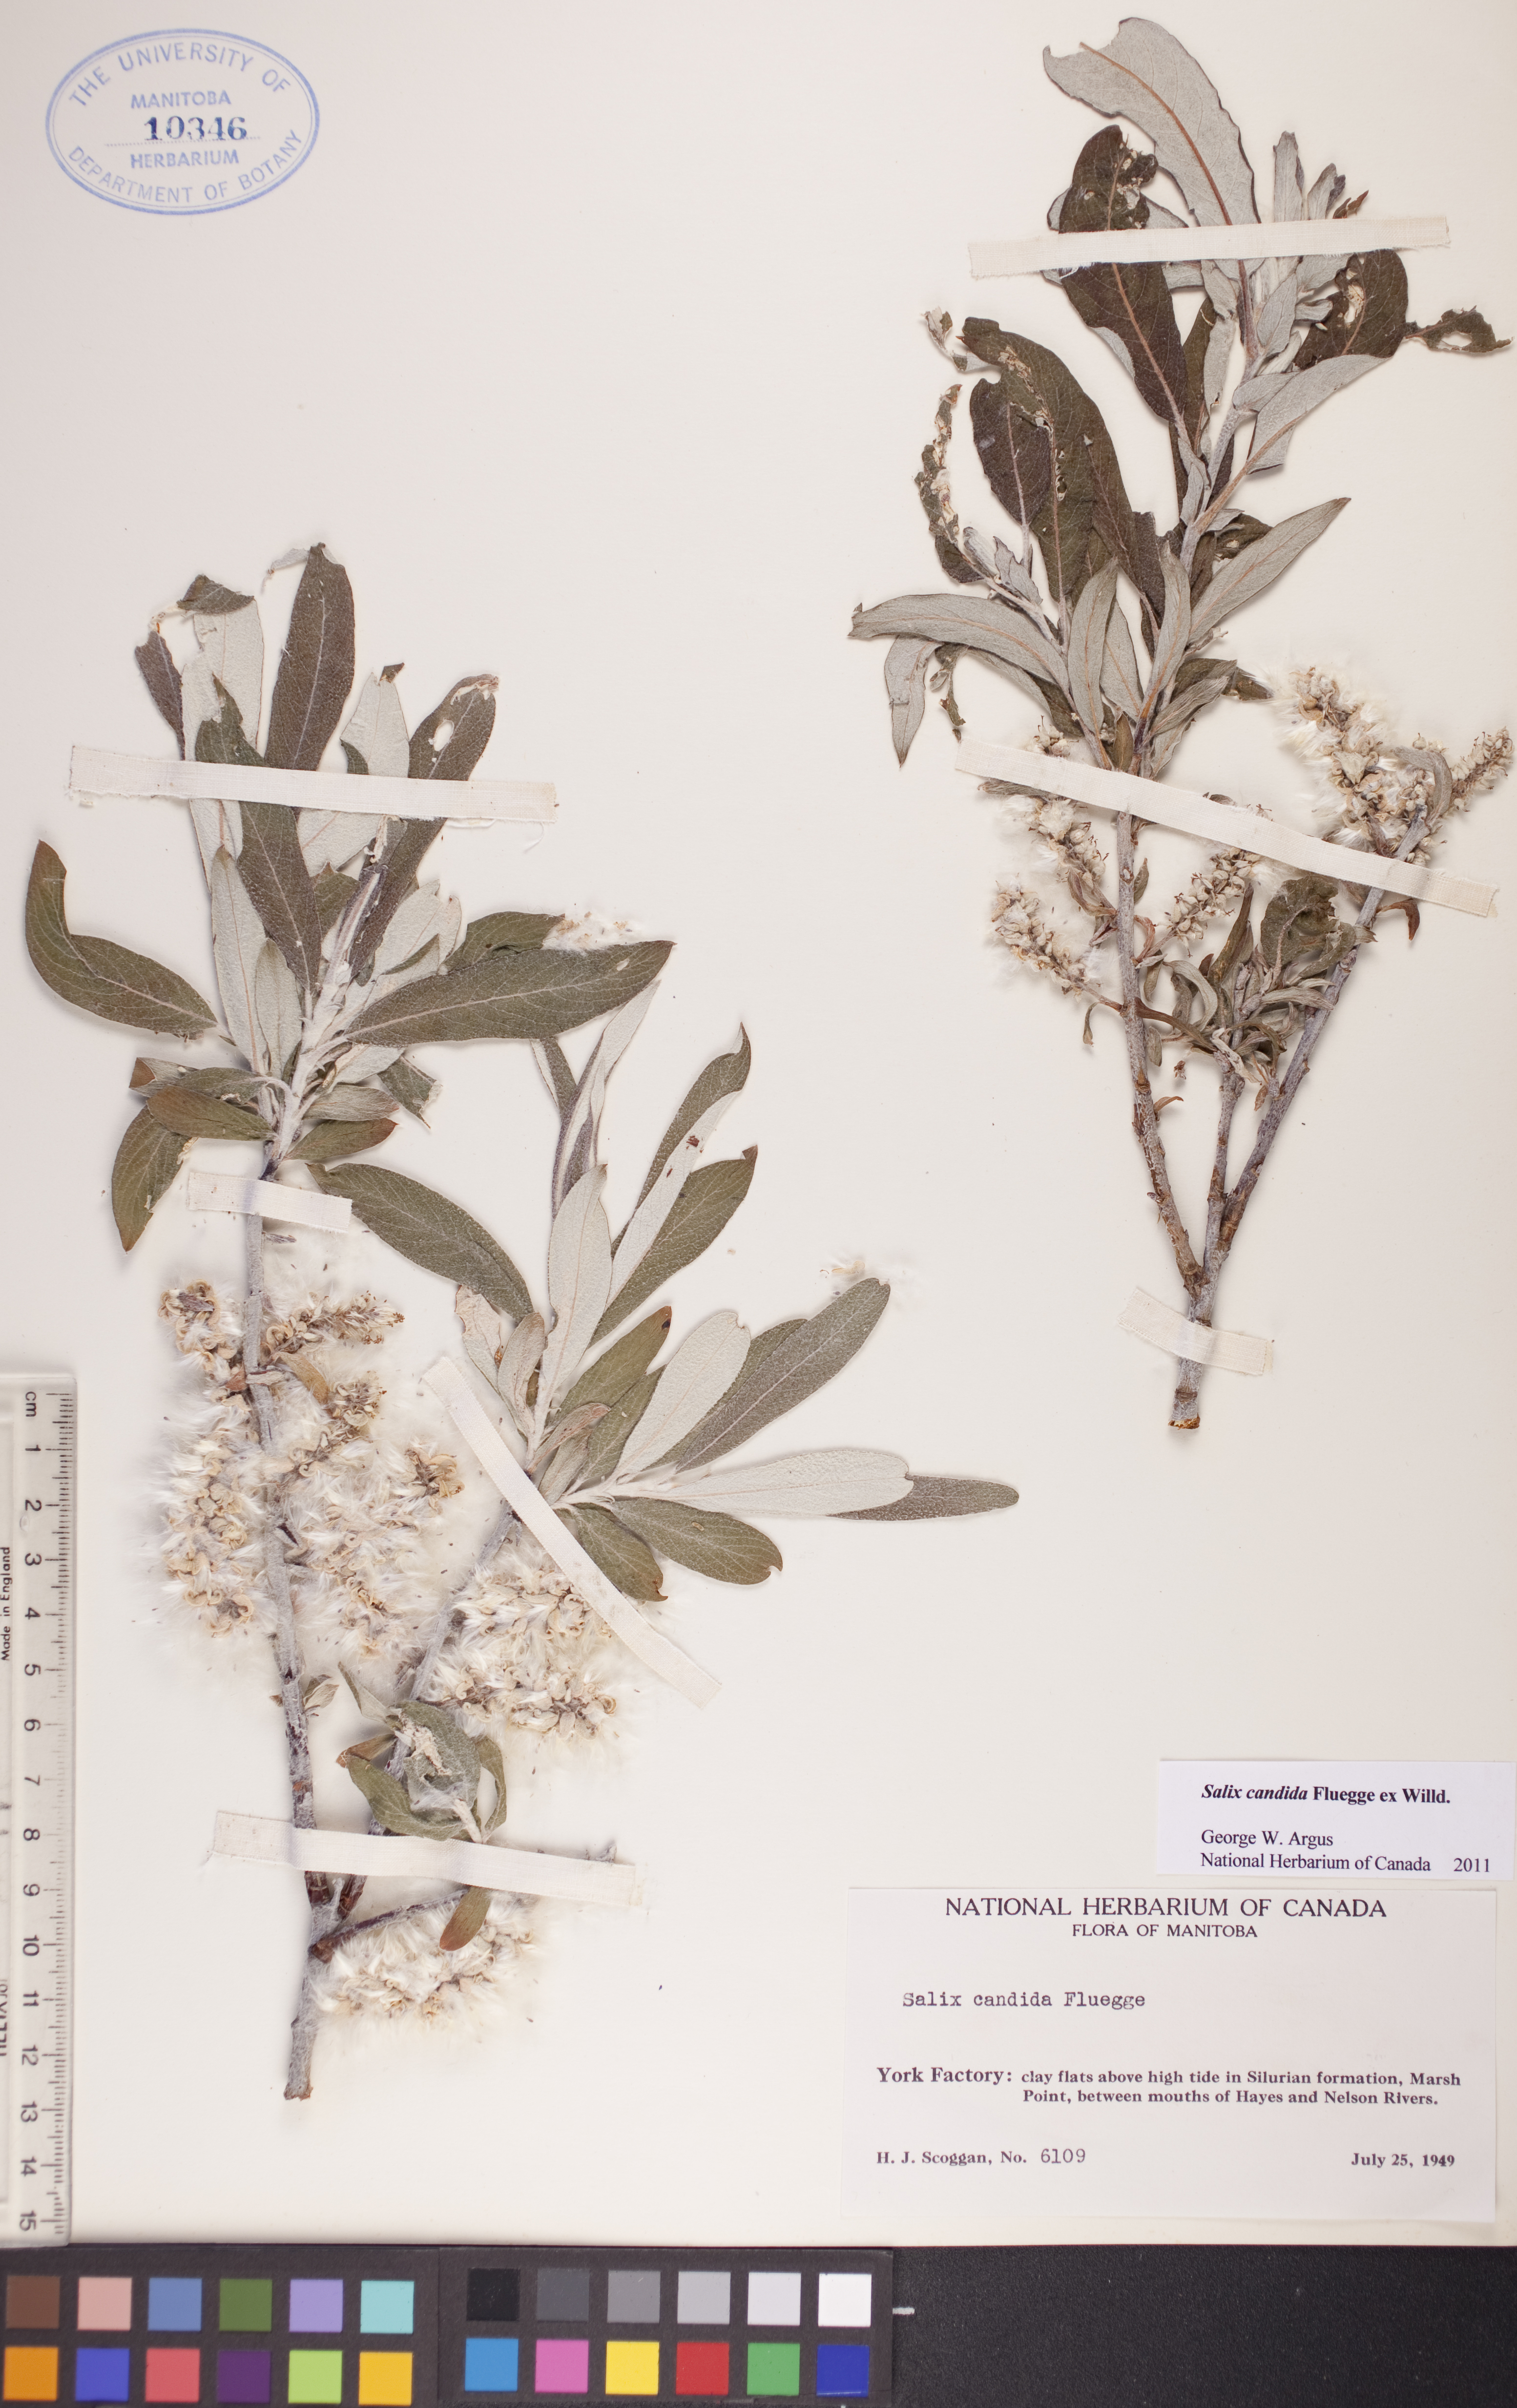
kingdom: Plantae
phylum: Tracheophyta
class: Magnoliopsida
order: Malpighiales
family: Salicaceae
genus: Salix
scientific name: Salix candida
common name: Hoary willow
